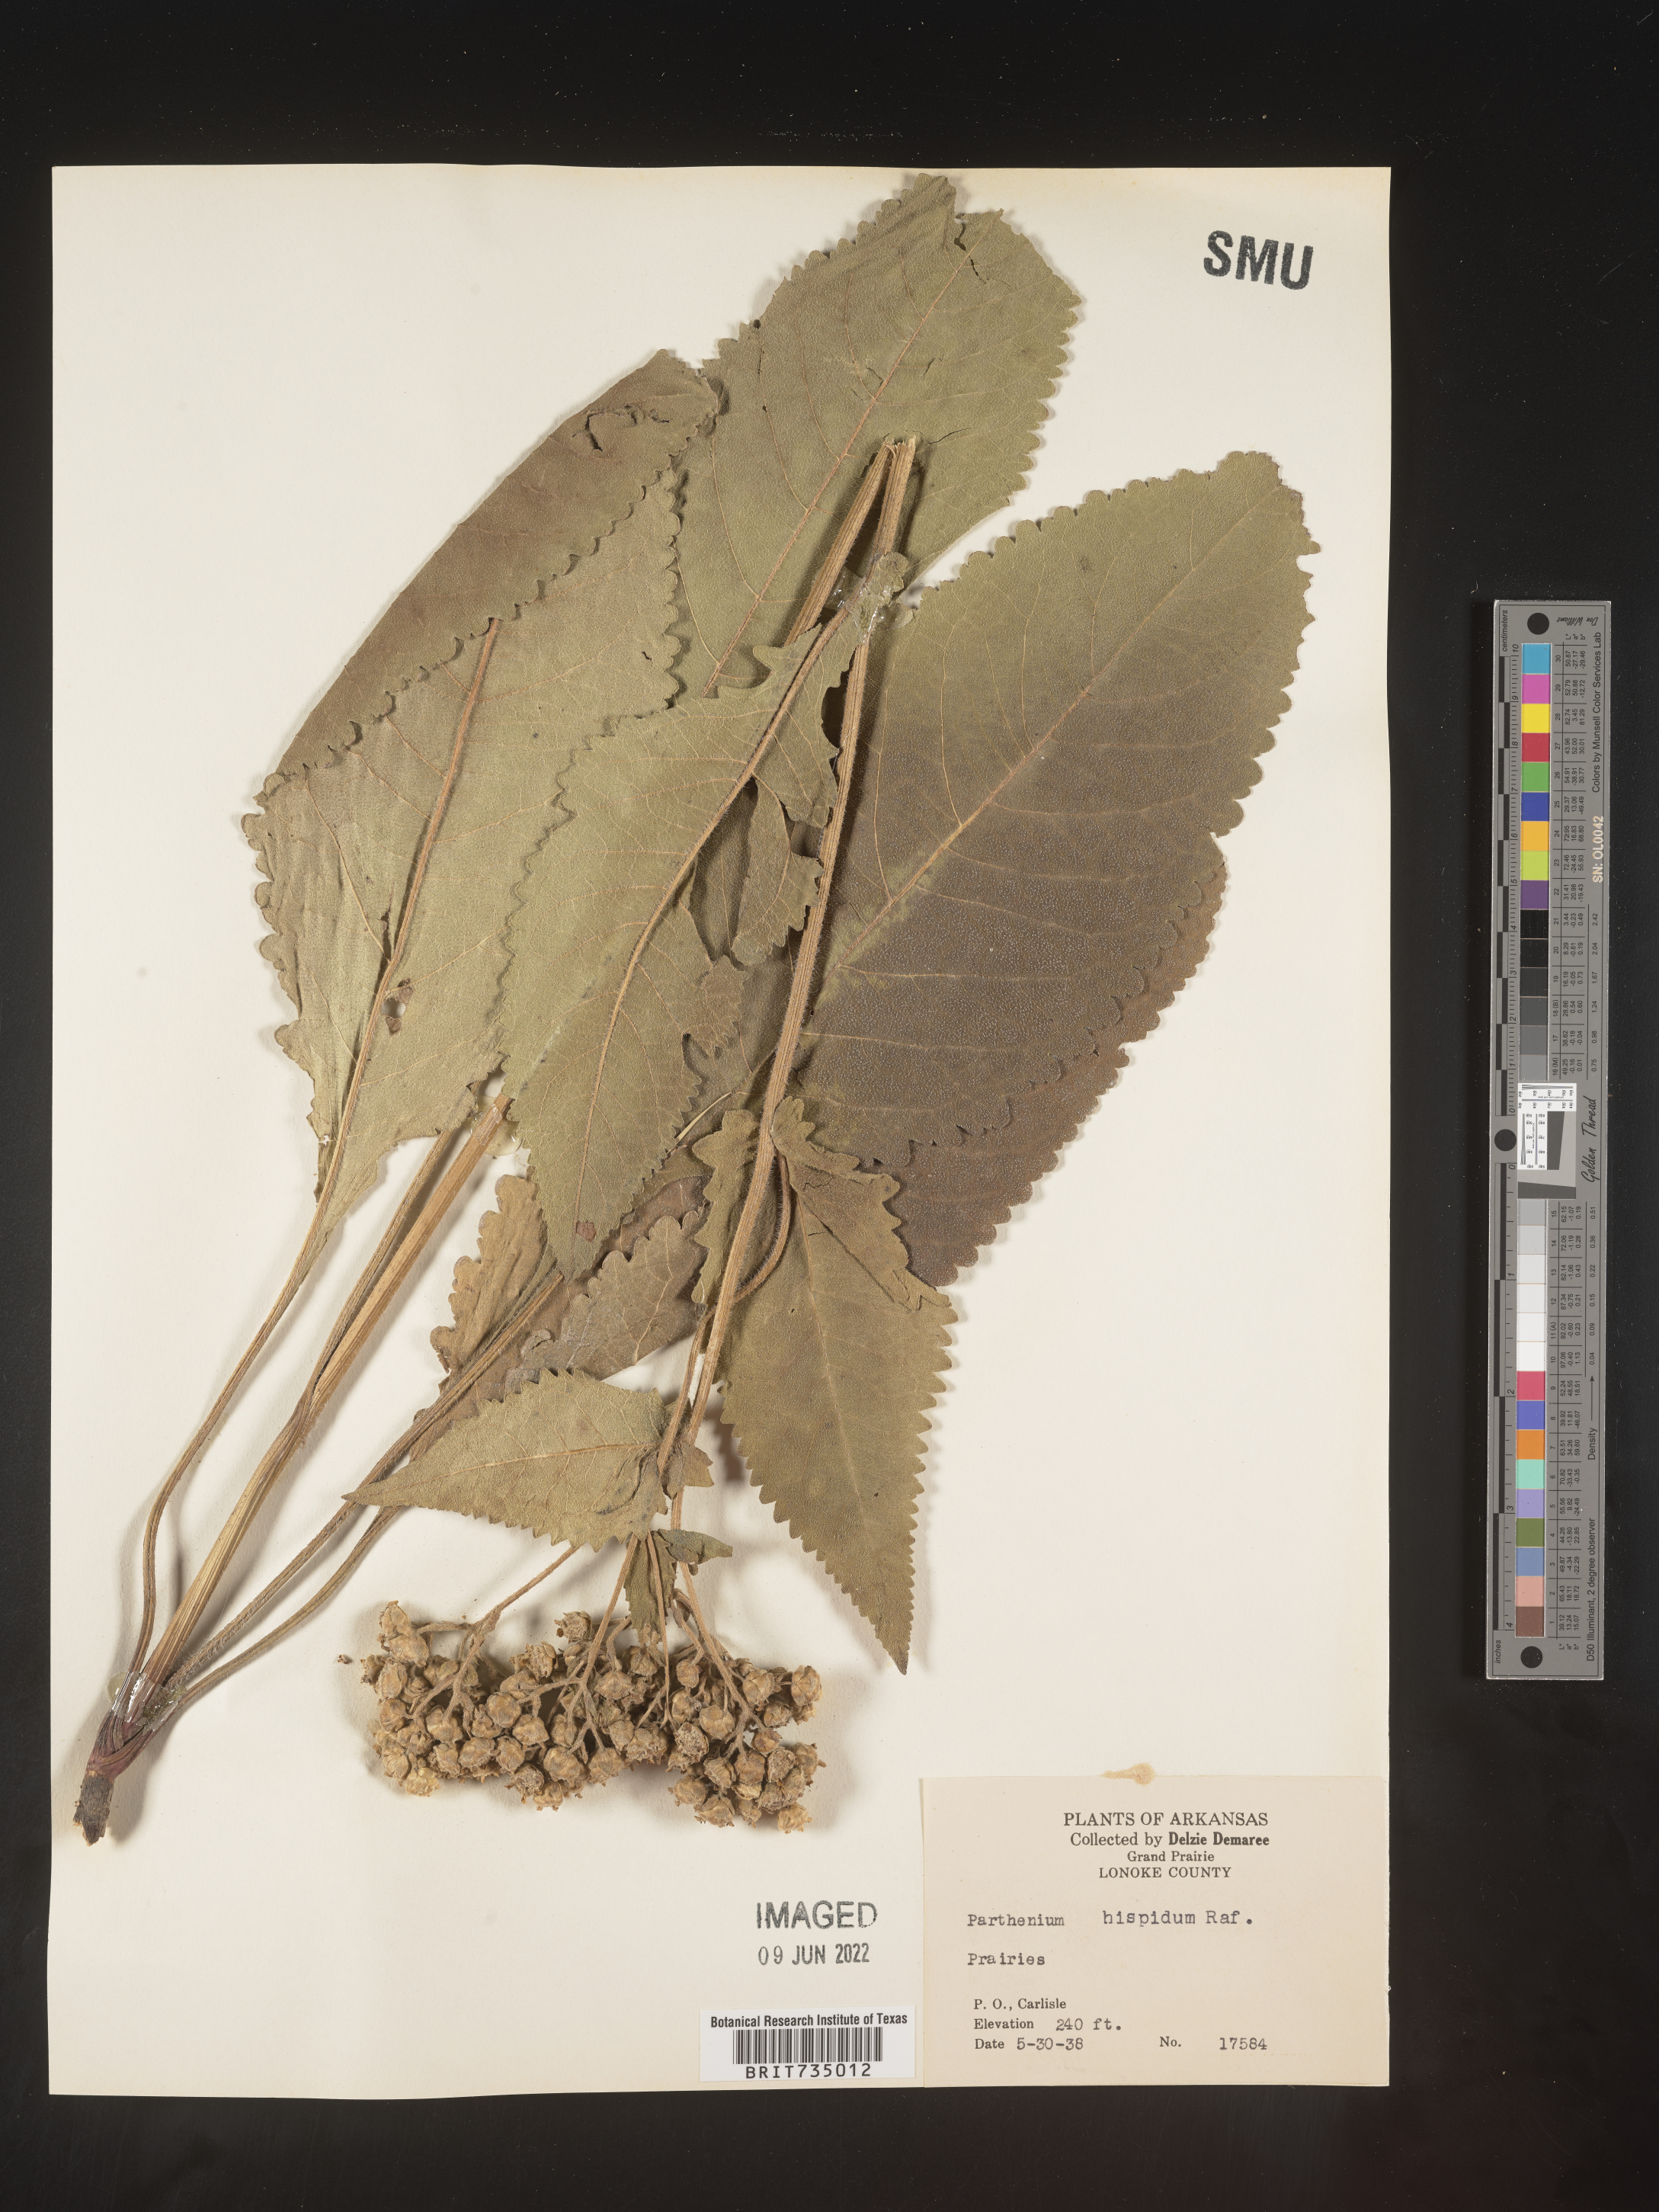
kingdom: Plantae
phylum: Tracheophyta
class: Magnoliopsida
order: Asterales
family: Asteraceae
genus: Parthenium
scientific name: Parthenium hispidum
